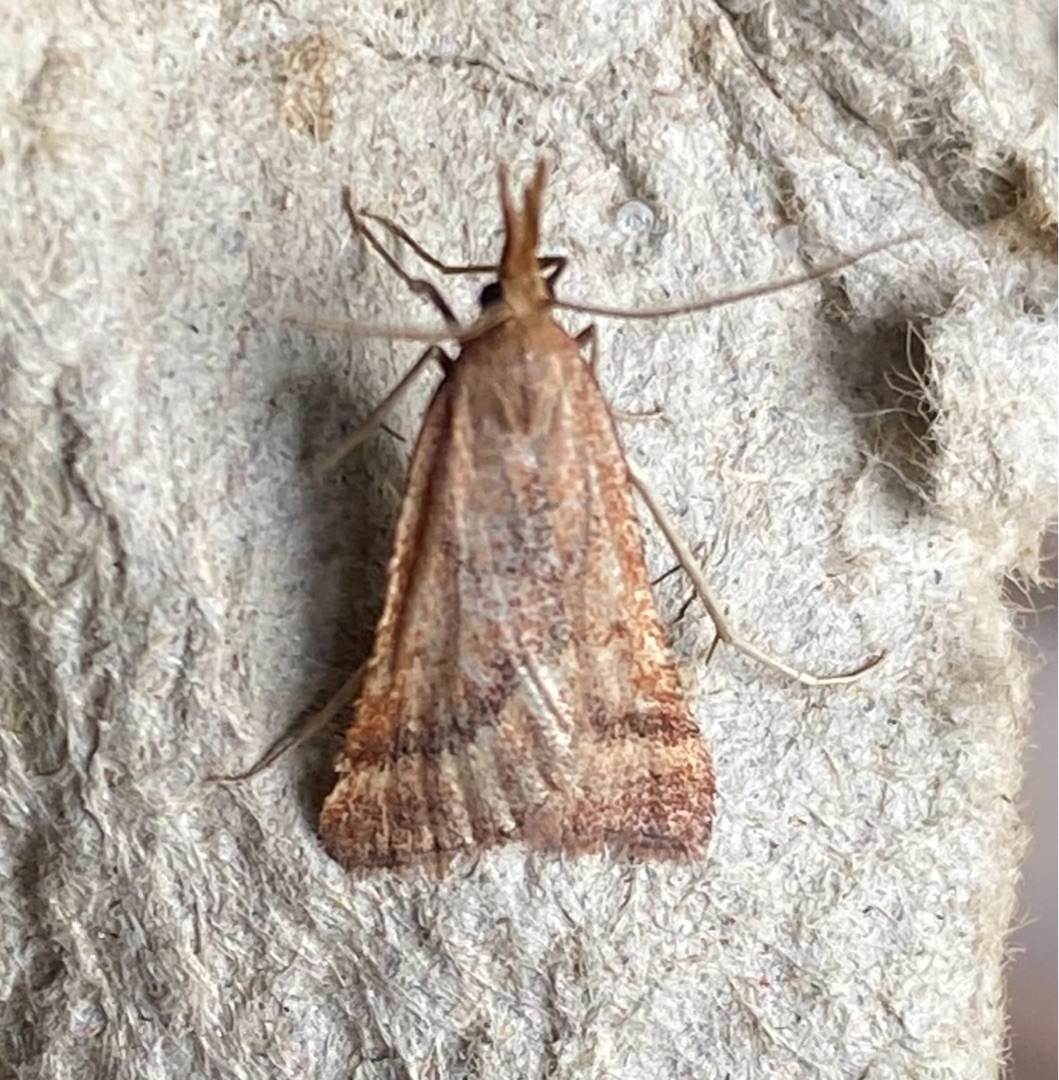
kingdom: Animalia
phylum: Arthropoda
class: Insecta
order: Lepidoptera
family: Pyralidae
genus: Synaphe
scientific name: Synaphe punctalis
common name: Spidsvinget moshalvmøl
